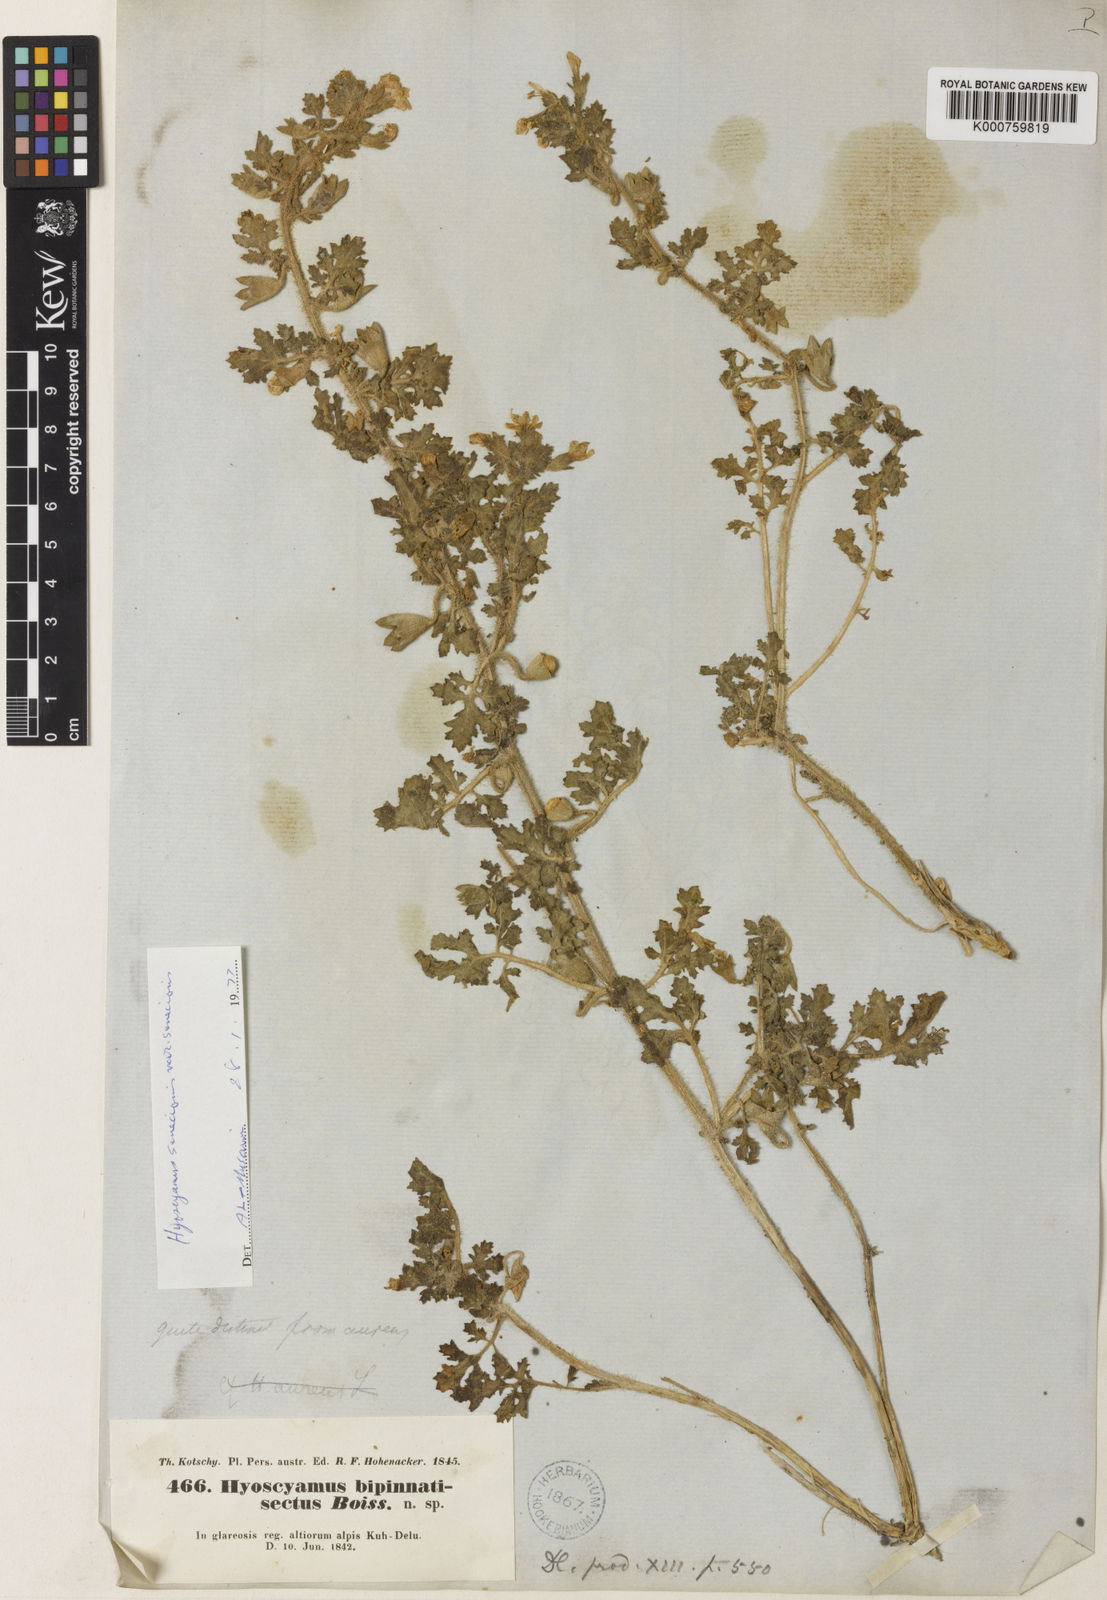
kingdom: Plantae
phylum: Tracheophyta
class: Magnoliopsida
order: Solanales
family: Solanaceae
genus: Hyoscyamus
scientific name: Hyoscyamus senecionis
